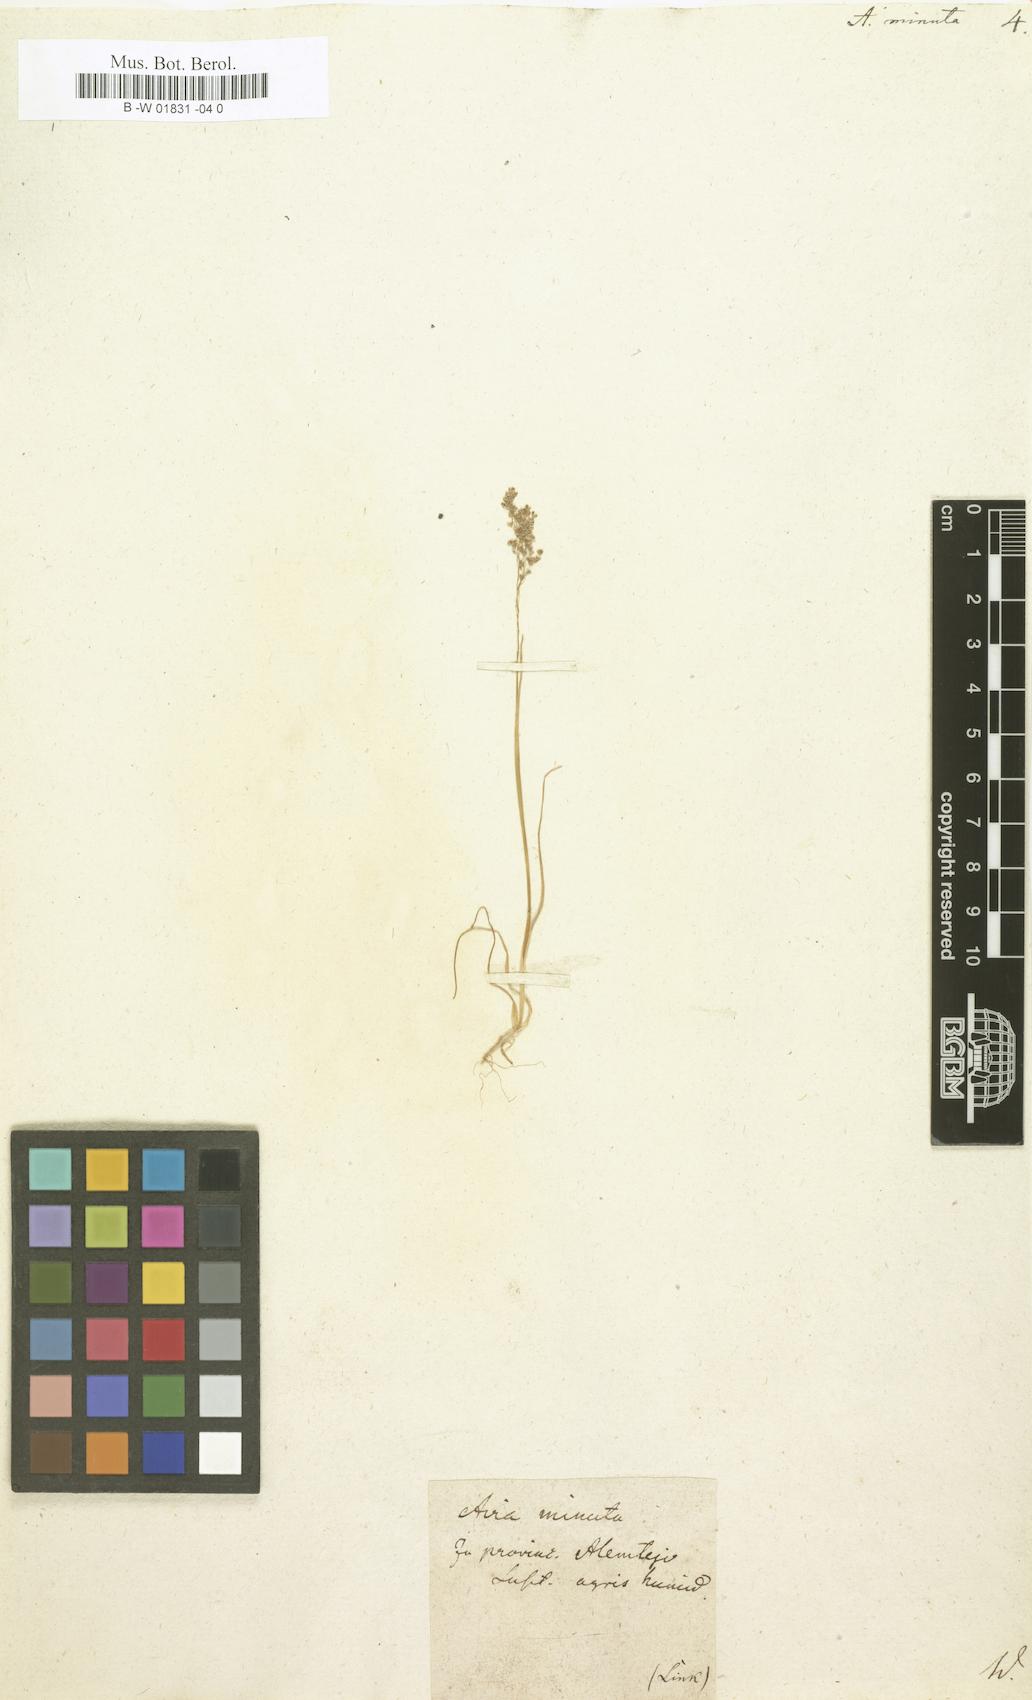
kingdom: Plantae
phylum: Tracheophyta
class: Liliopsida
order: Poales
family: Poaceae
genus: Molineriella
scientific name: Molineriella minuta
